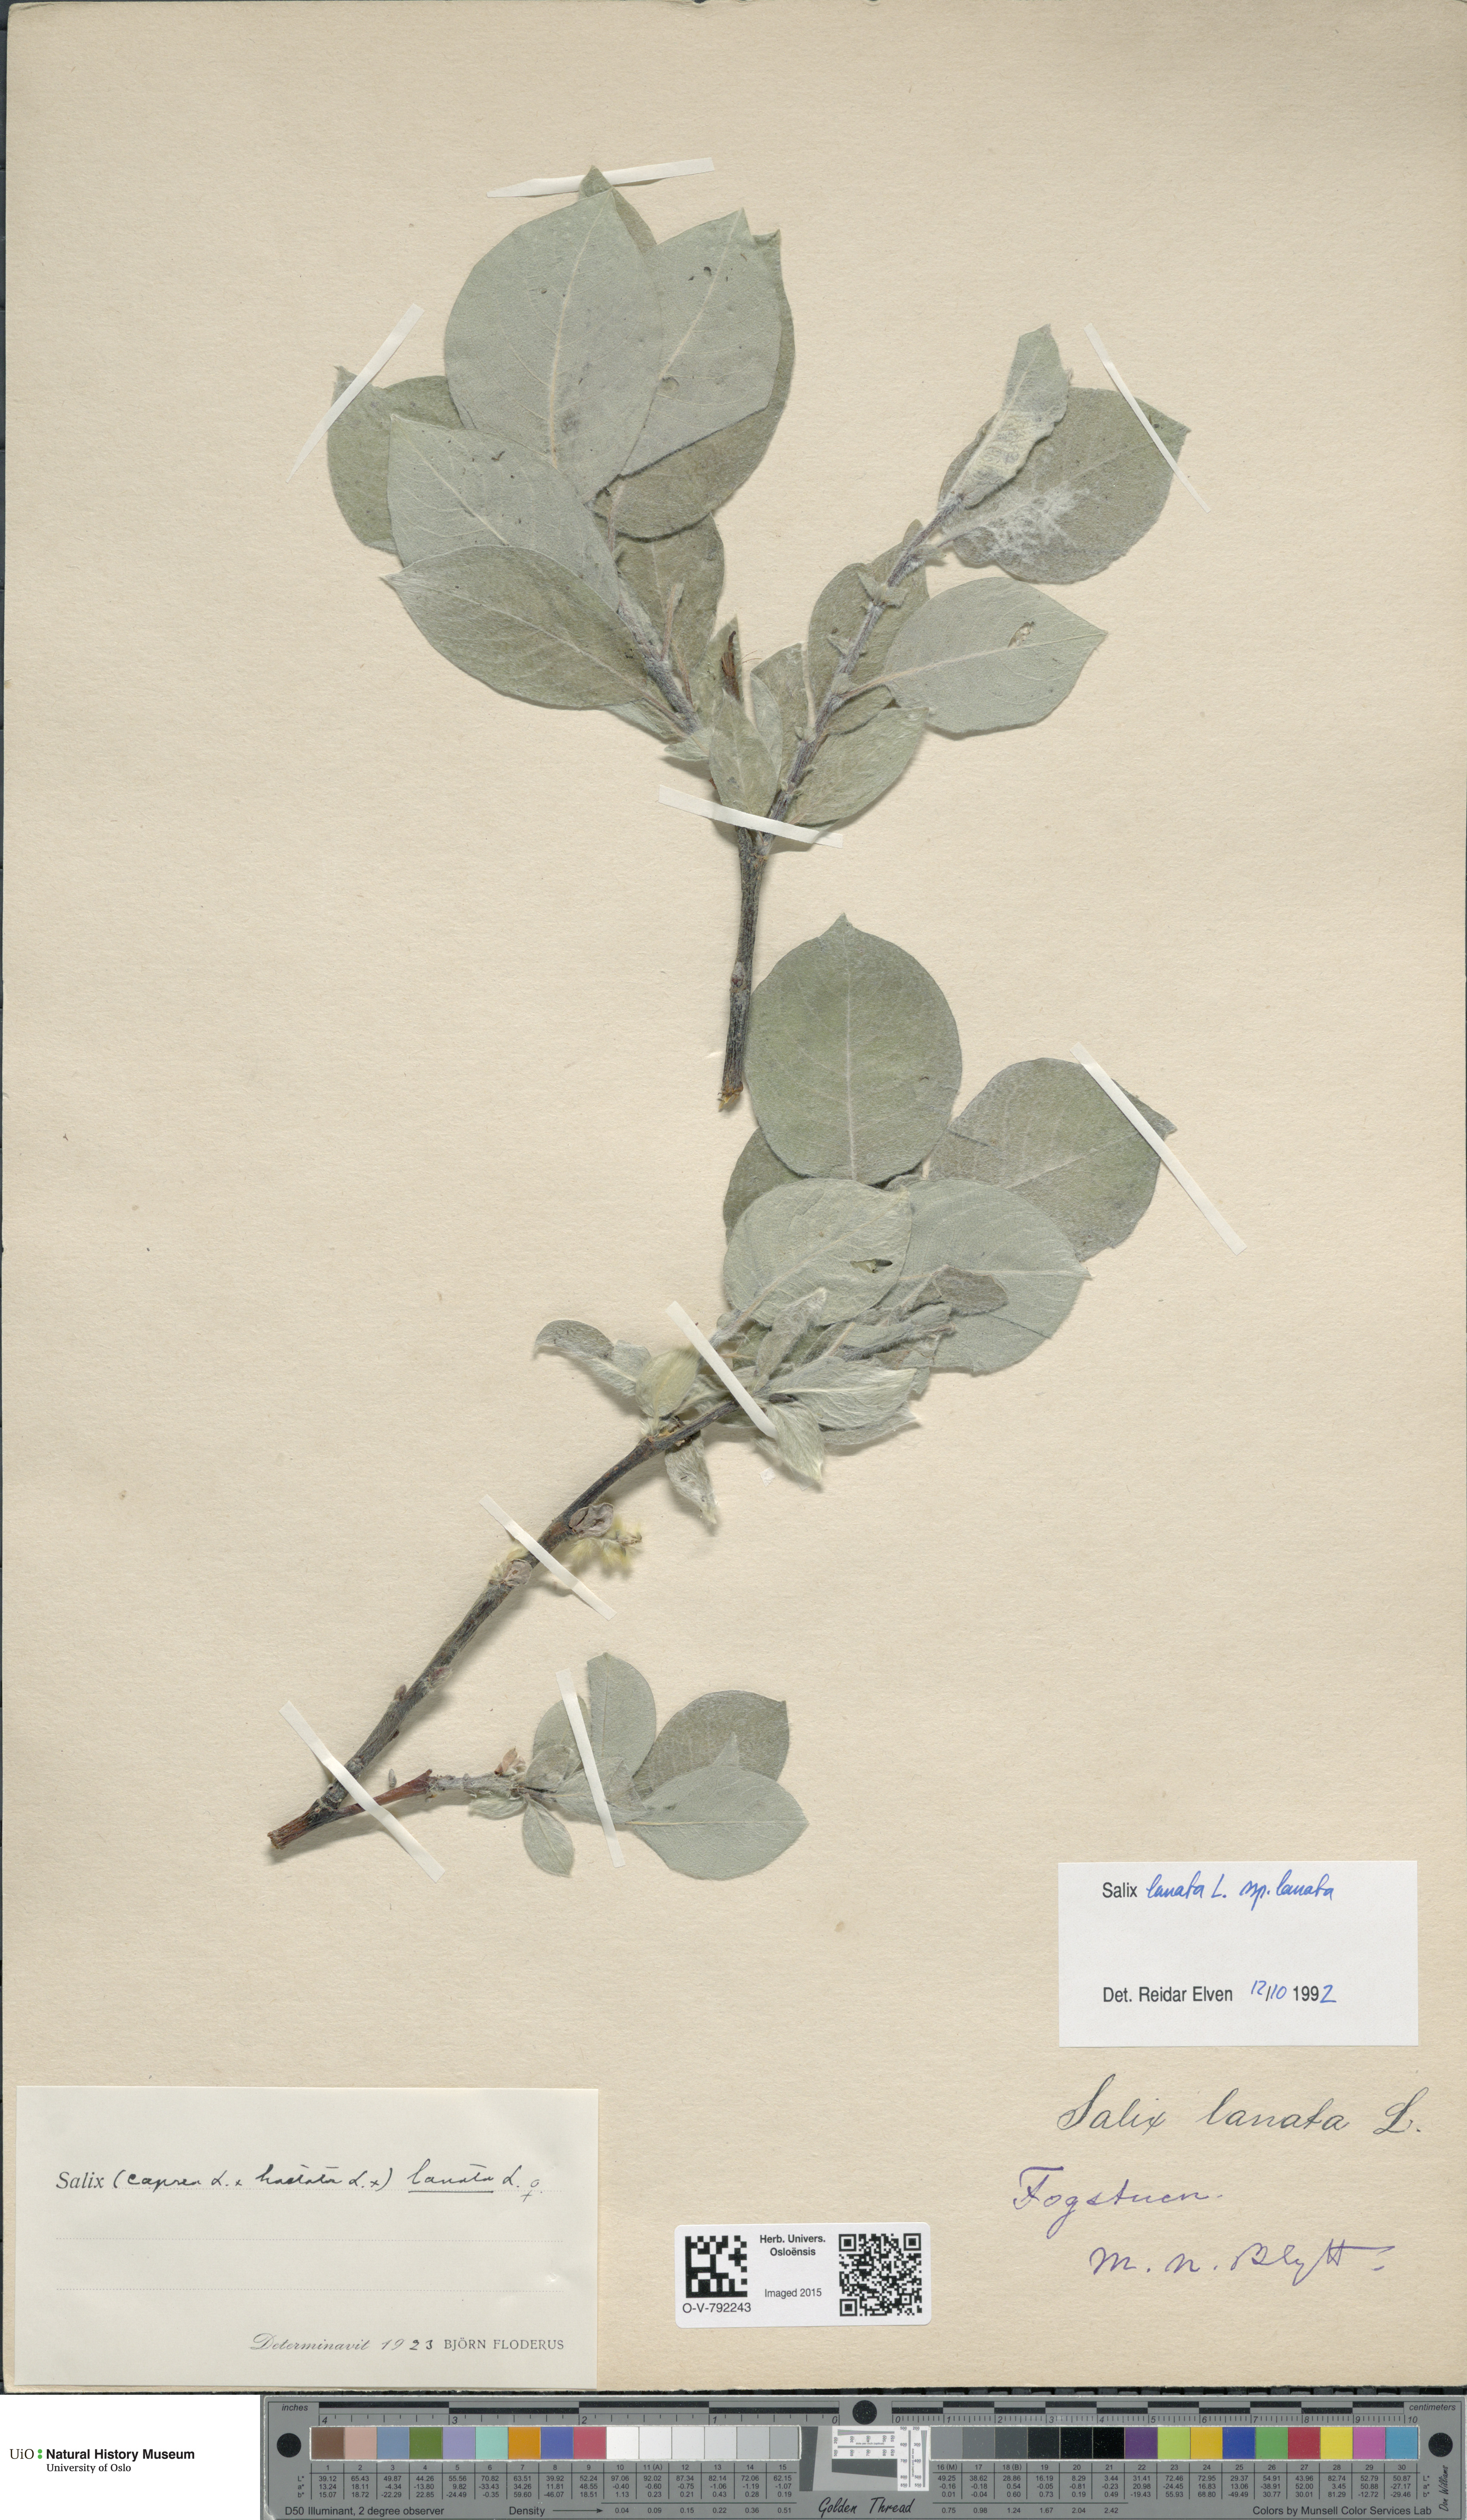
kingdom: Plantae
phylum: Tracheophyta
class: Magnoliopsida
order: Malpighiales
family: Salicaceae
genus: Salix
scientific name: Salix lanata
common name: Woolly willow
